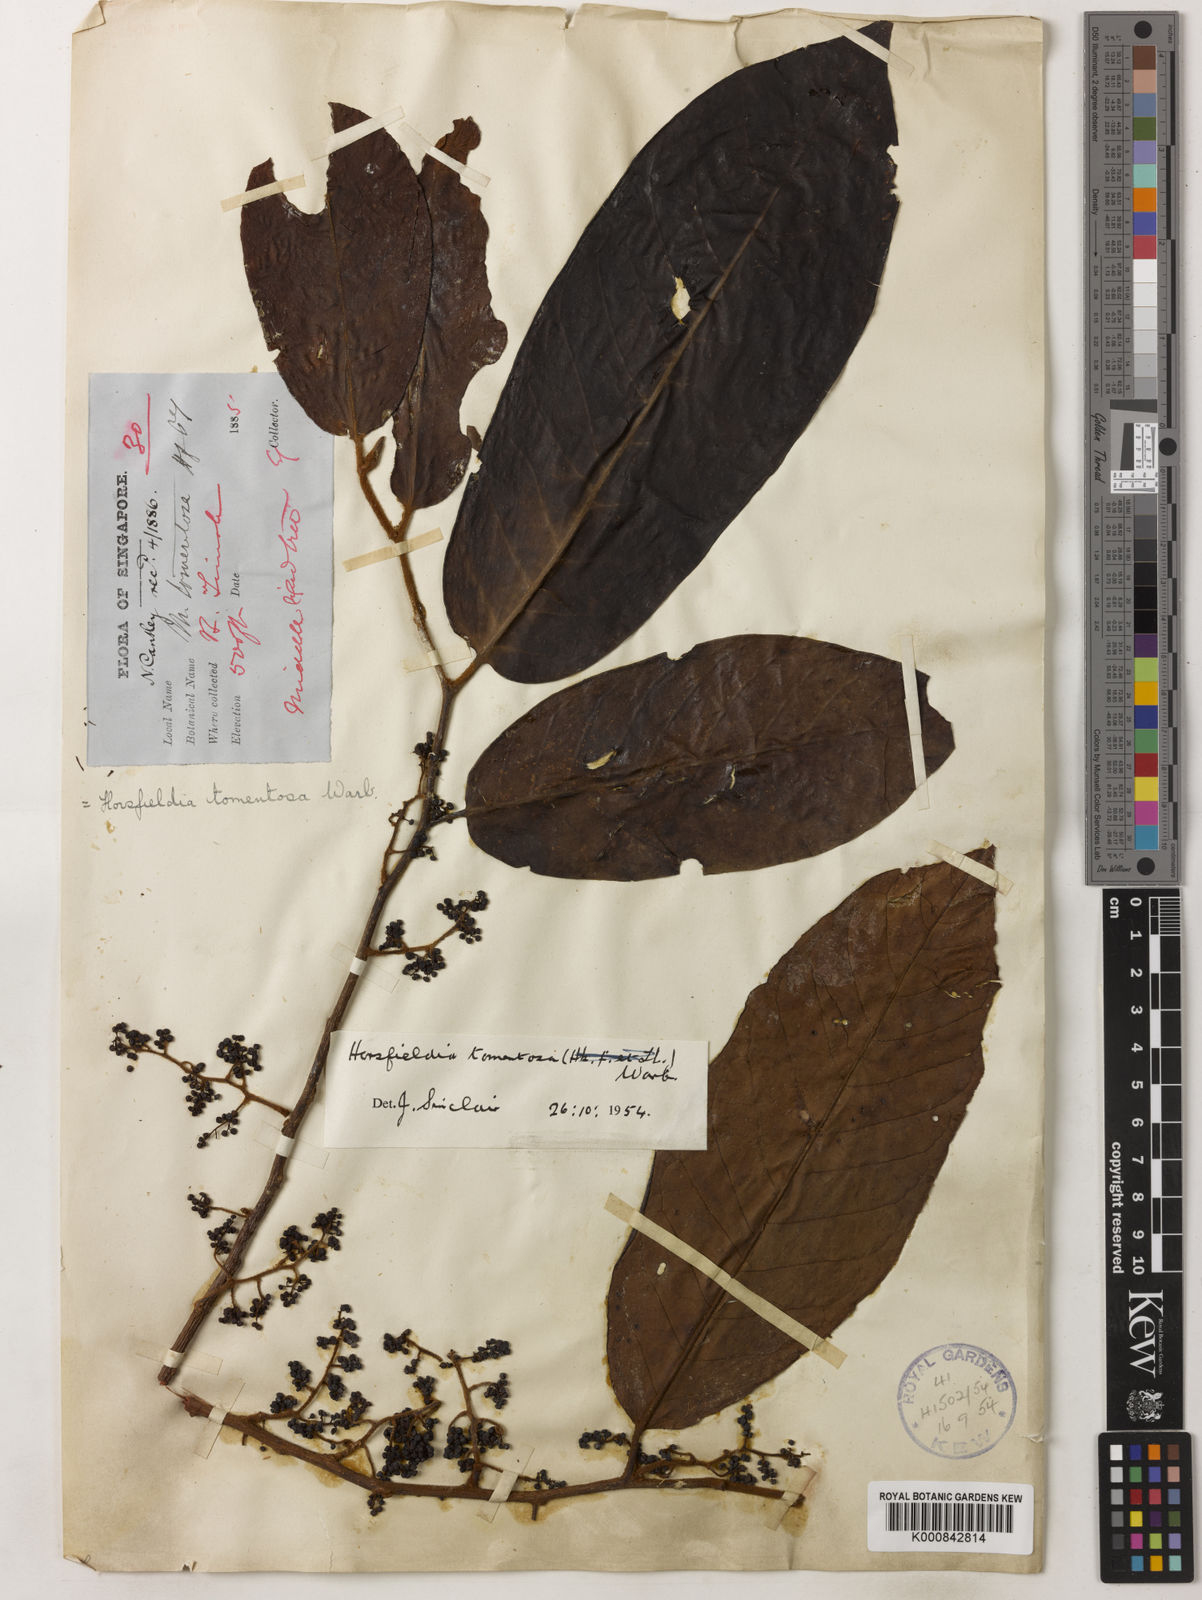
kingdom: Plantae
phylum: Tracheophyta
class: Magnoliopsida
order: Magnoliales
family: Myristicaceae
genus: Horsfieldia
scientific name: Horsfieldia tomentosa
